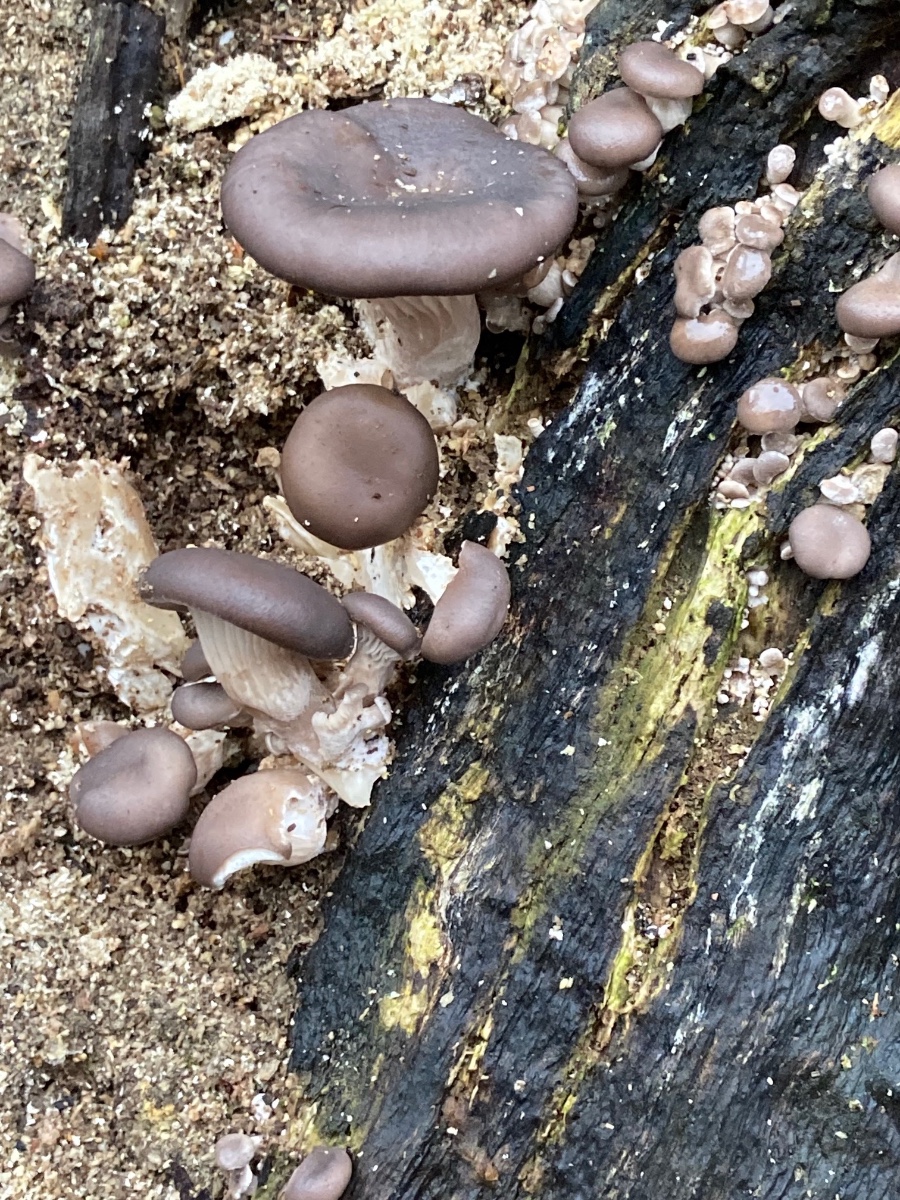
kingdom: Fungi
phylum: Basidiomycota
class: Agaricomycetes
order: Agaricales
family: Pleurotaceae
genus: Pleurotus
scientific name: Pleurotus ostreatus
